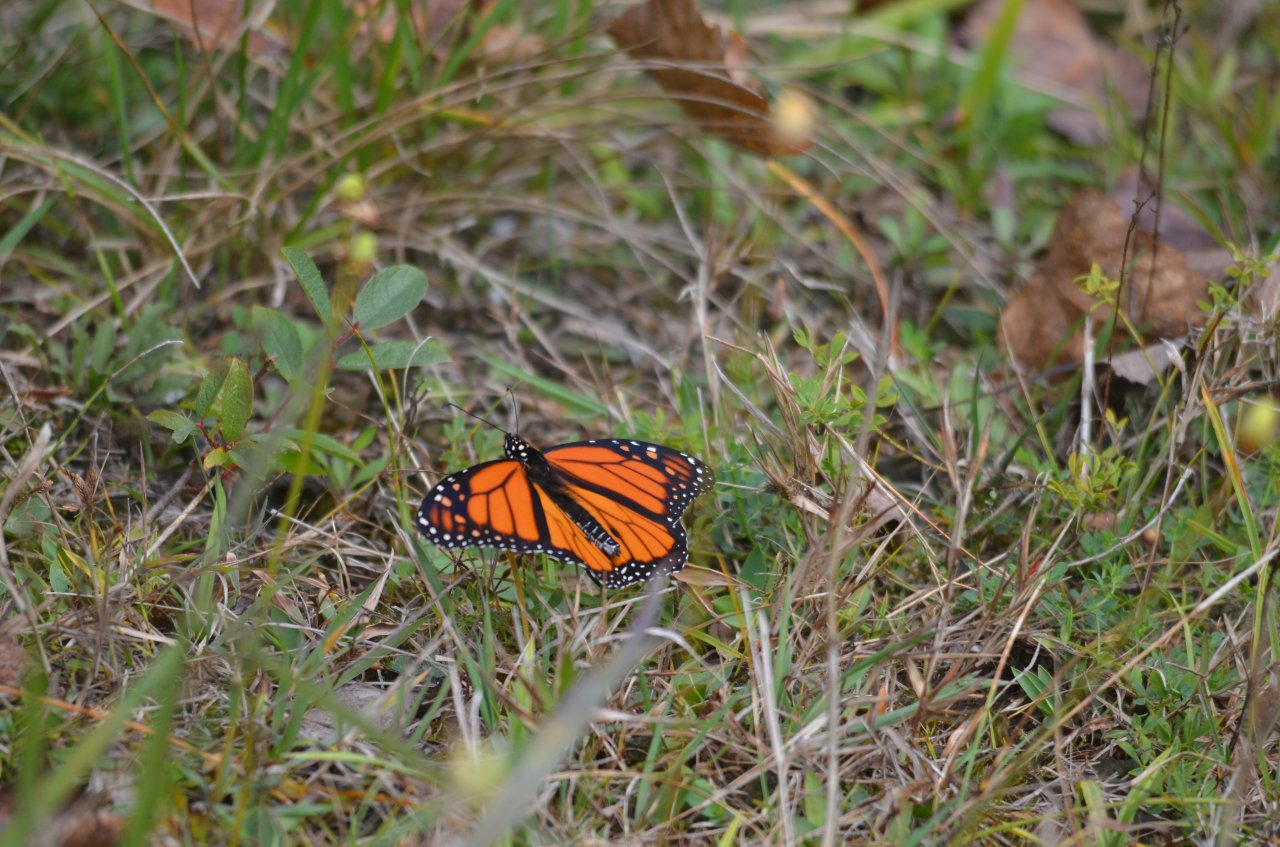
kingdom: Animalia
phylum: Arthropoda
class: Insecta
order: Lepidoptera
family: Nymphalidae
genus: Danaus
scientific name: Danaus plexippus
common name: Monarch
